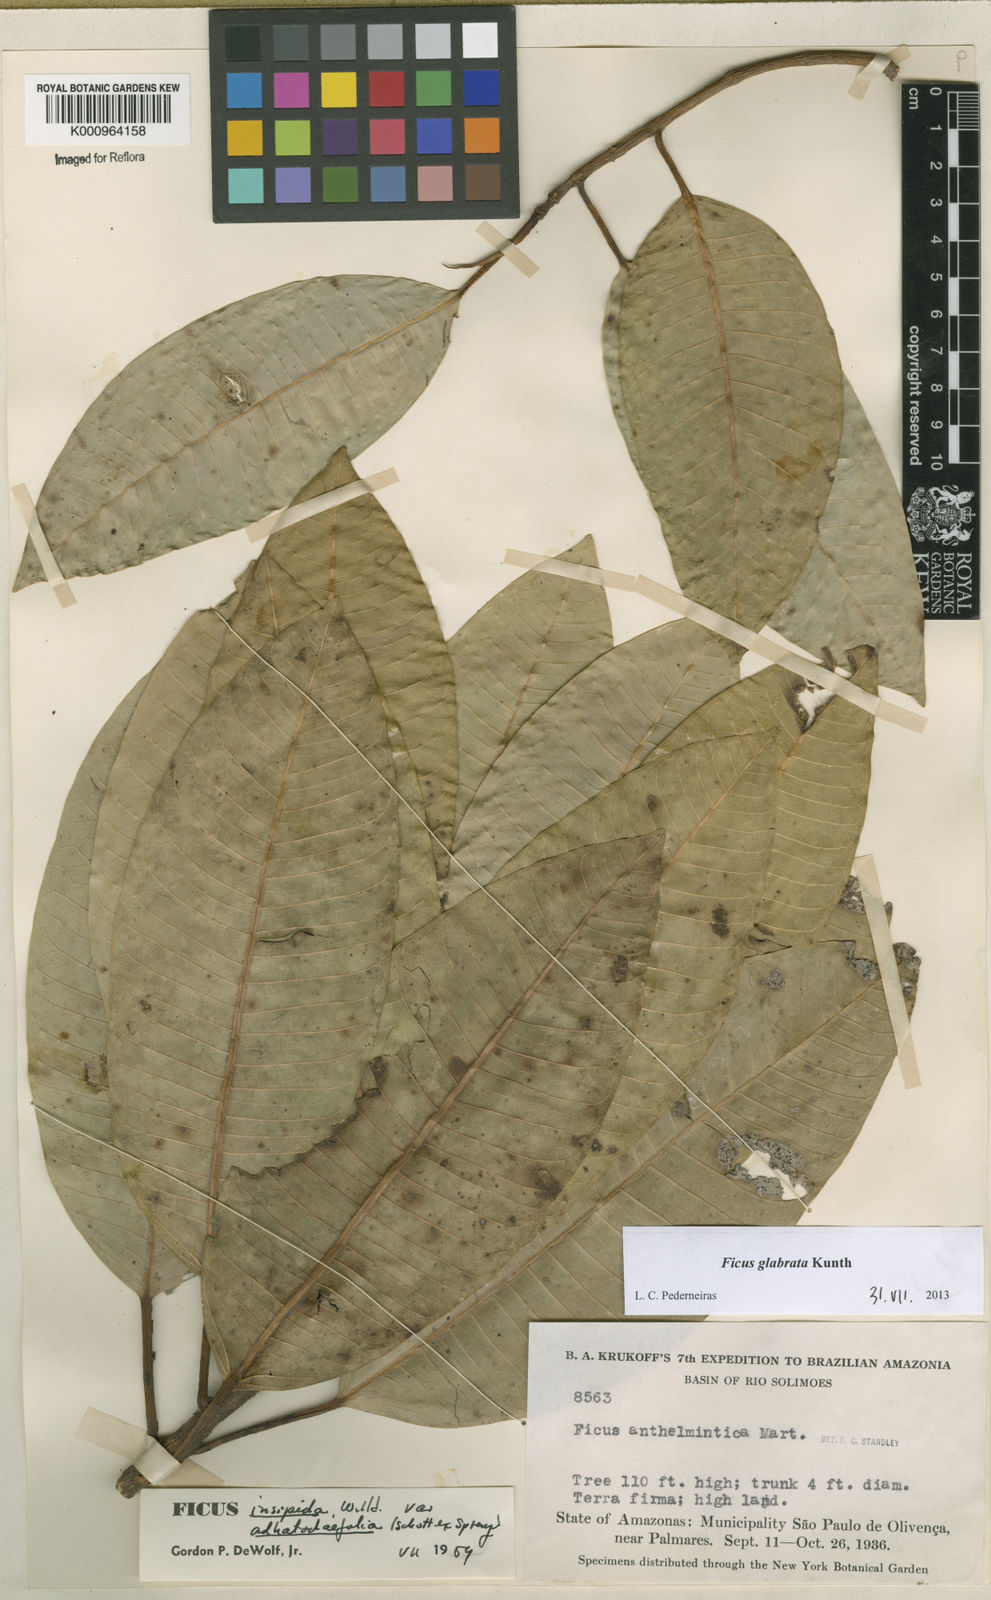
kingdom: Plantae
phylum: Tracheophyta
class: Magnoliopsida
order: Rosales
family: Moraceae
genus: Ficus
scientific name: Ficus insipida
